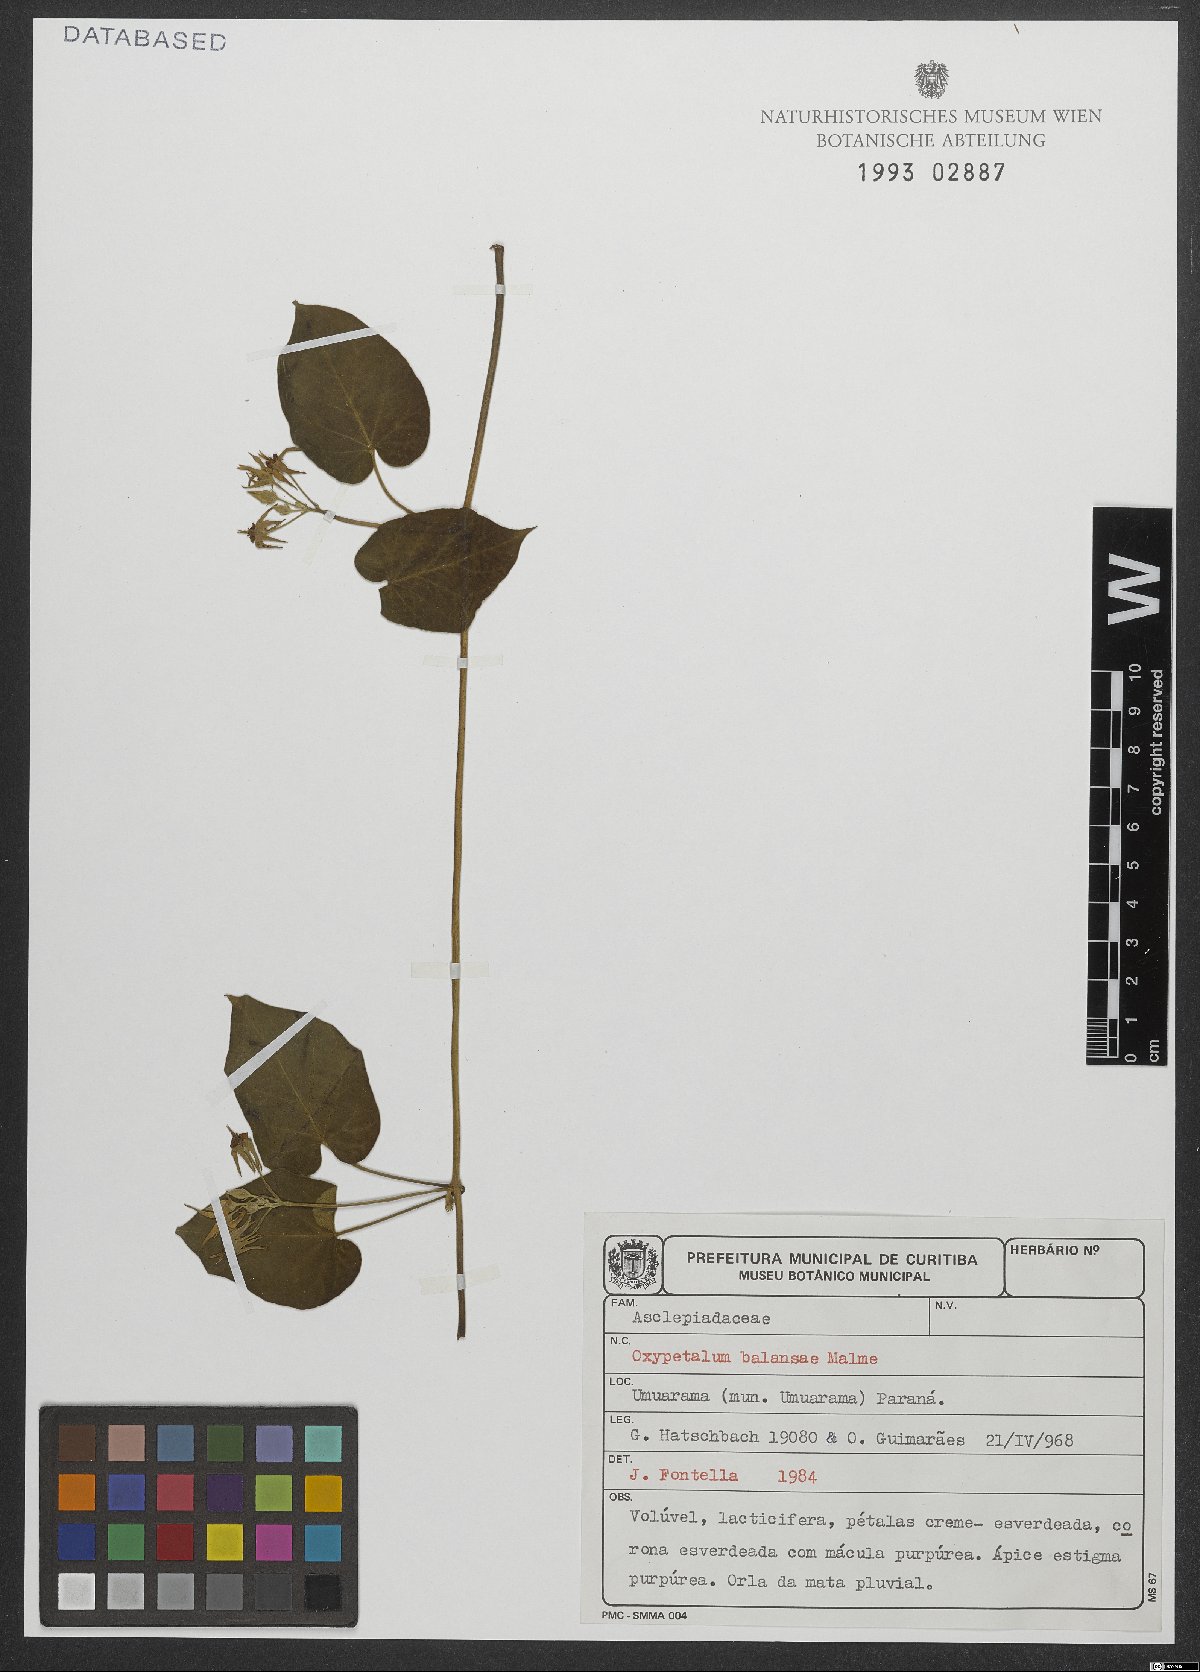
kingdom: Plantae
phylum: Tracheophyta
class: Magnoliopsida
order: Gentianales
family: Apocynaceae
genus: Oxypetalum
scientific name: Oxypetalum balansae
